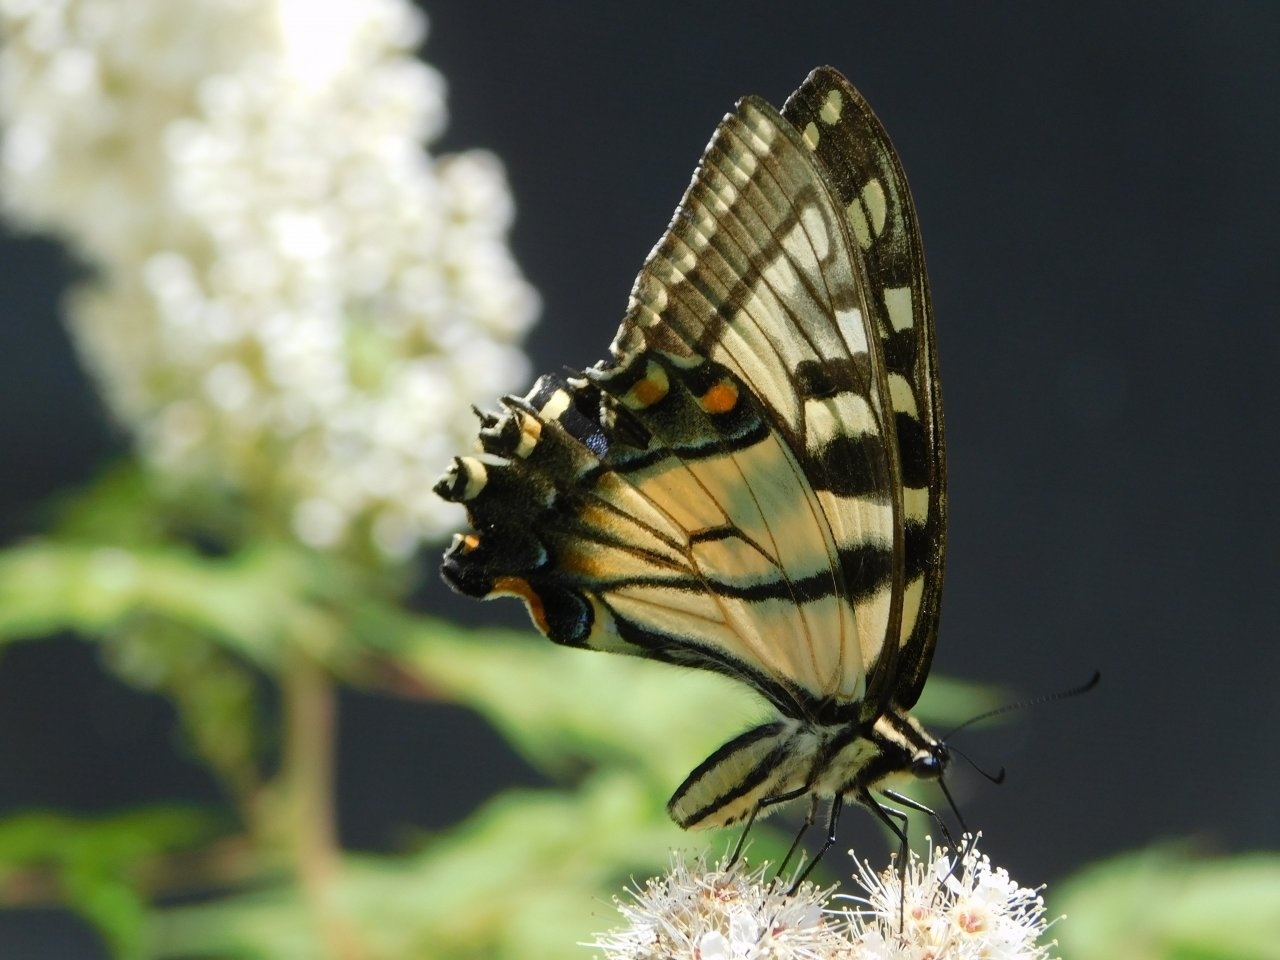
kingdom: Animalia
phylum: Arthropoda
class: Insecta
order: Lepidoptera
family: Papilionidae
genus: Pterourus
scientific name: Pterourus canadensis
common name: Canadian Tiger Swallowtail
